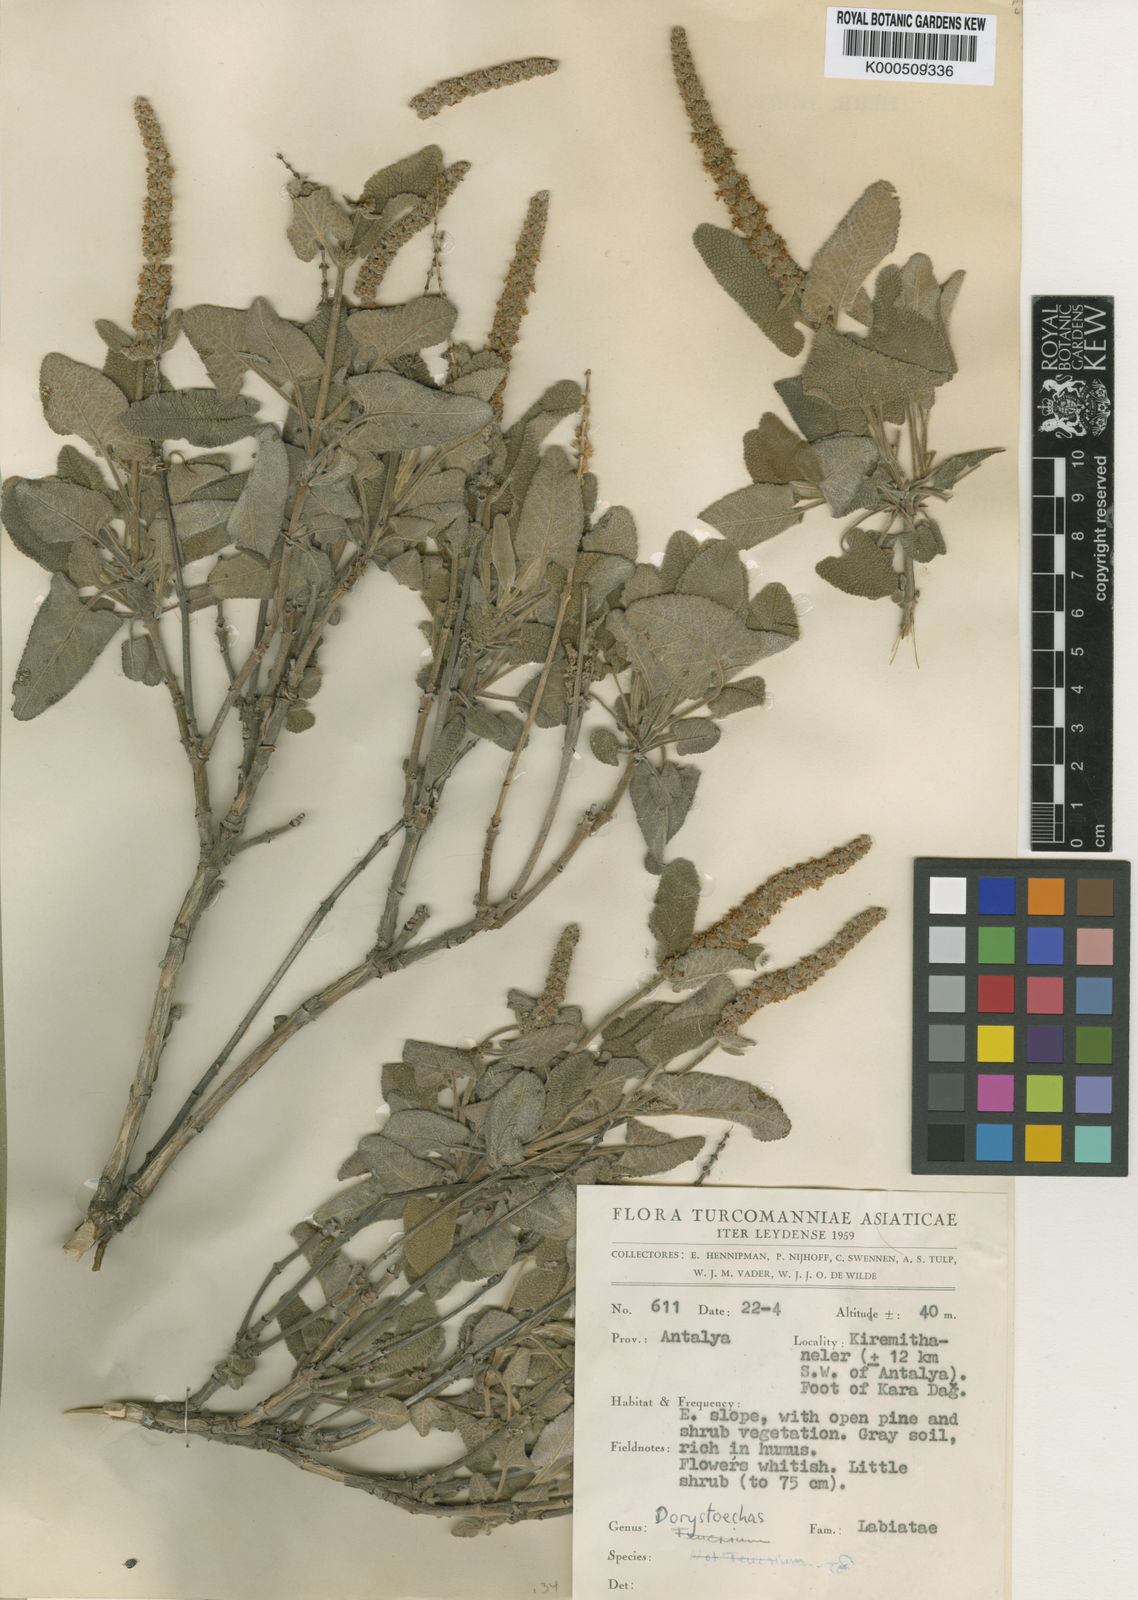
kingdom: Plantae
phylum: Tracheophyta
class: Magnoliopsida
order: Lamiales
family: Lamiaceae
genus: Salvia
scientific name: Salvia dorystaechas
